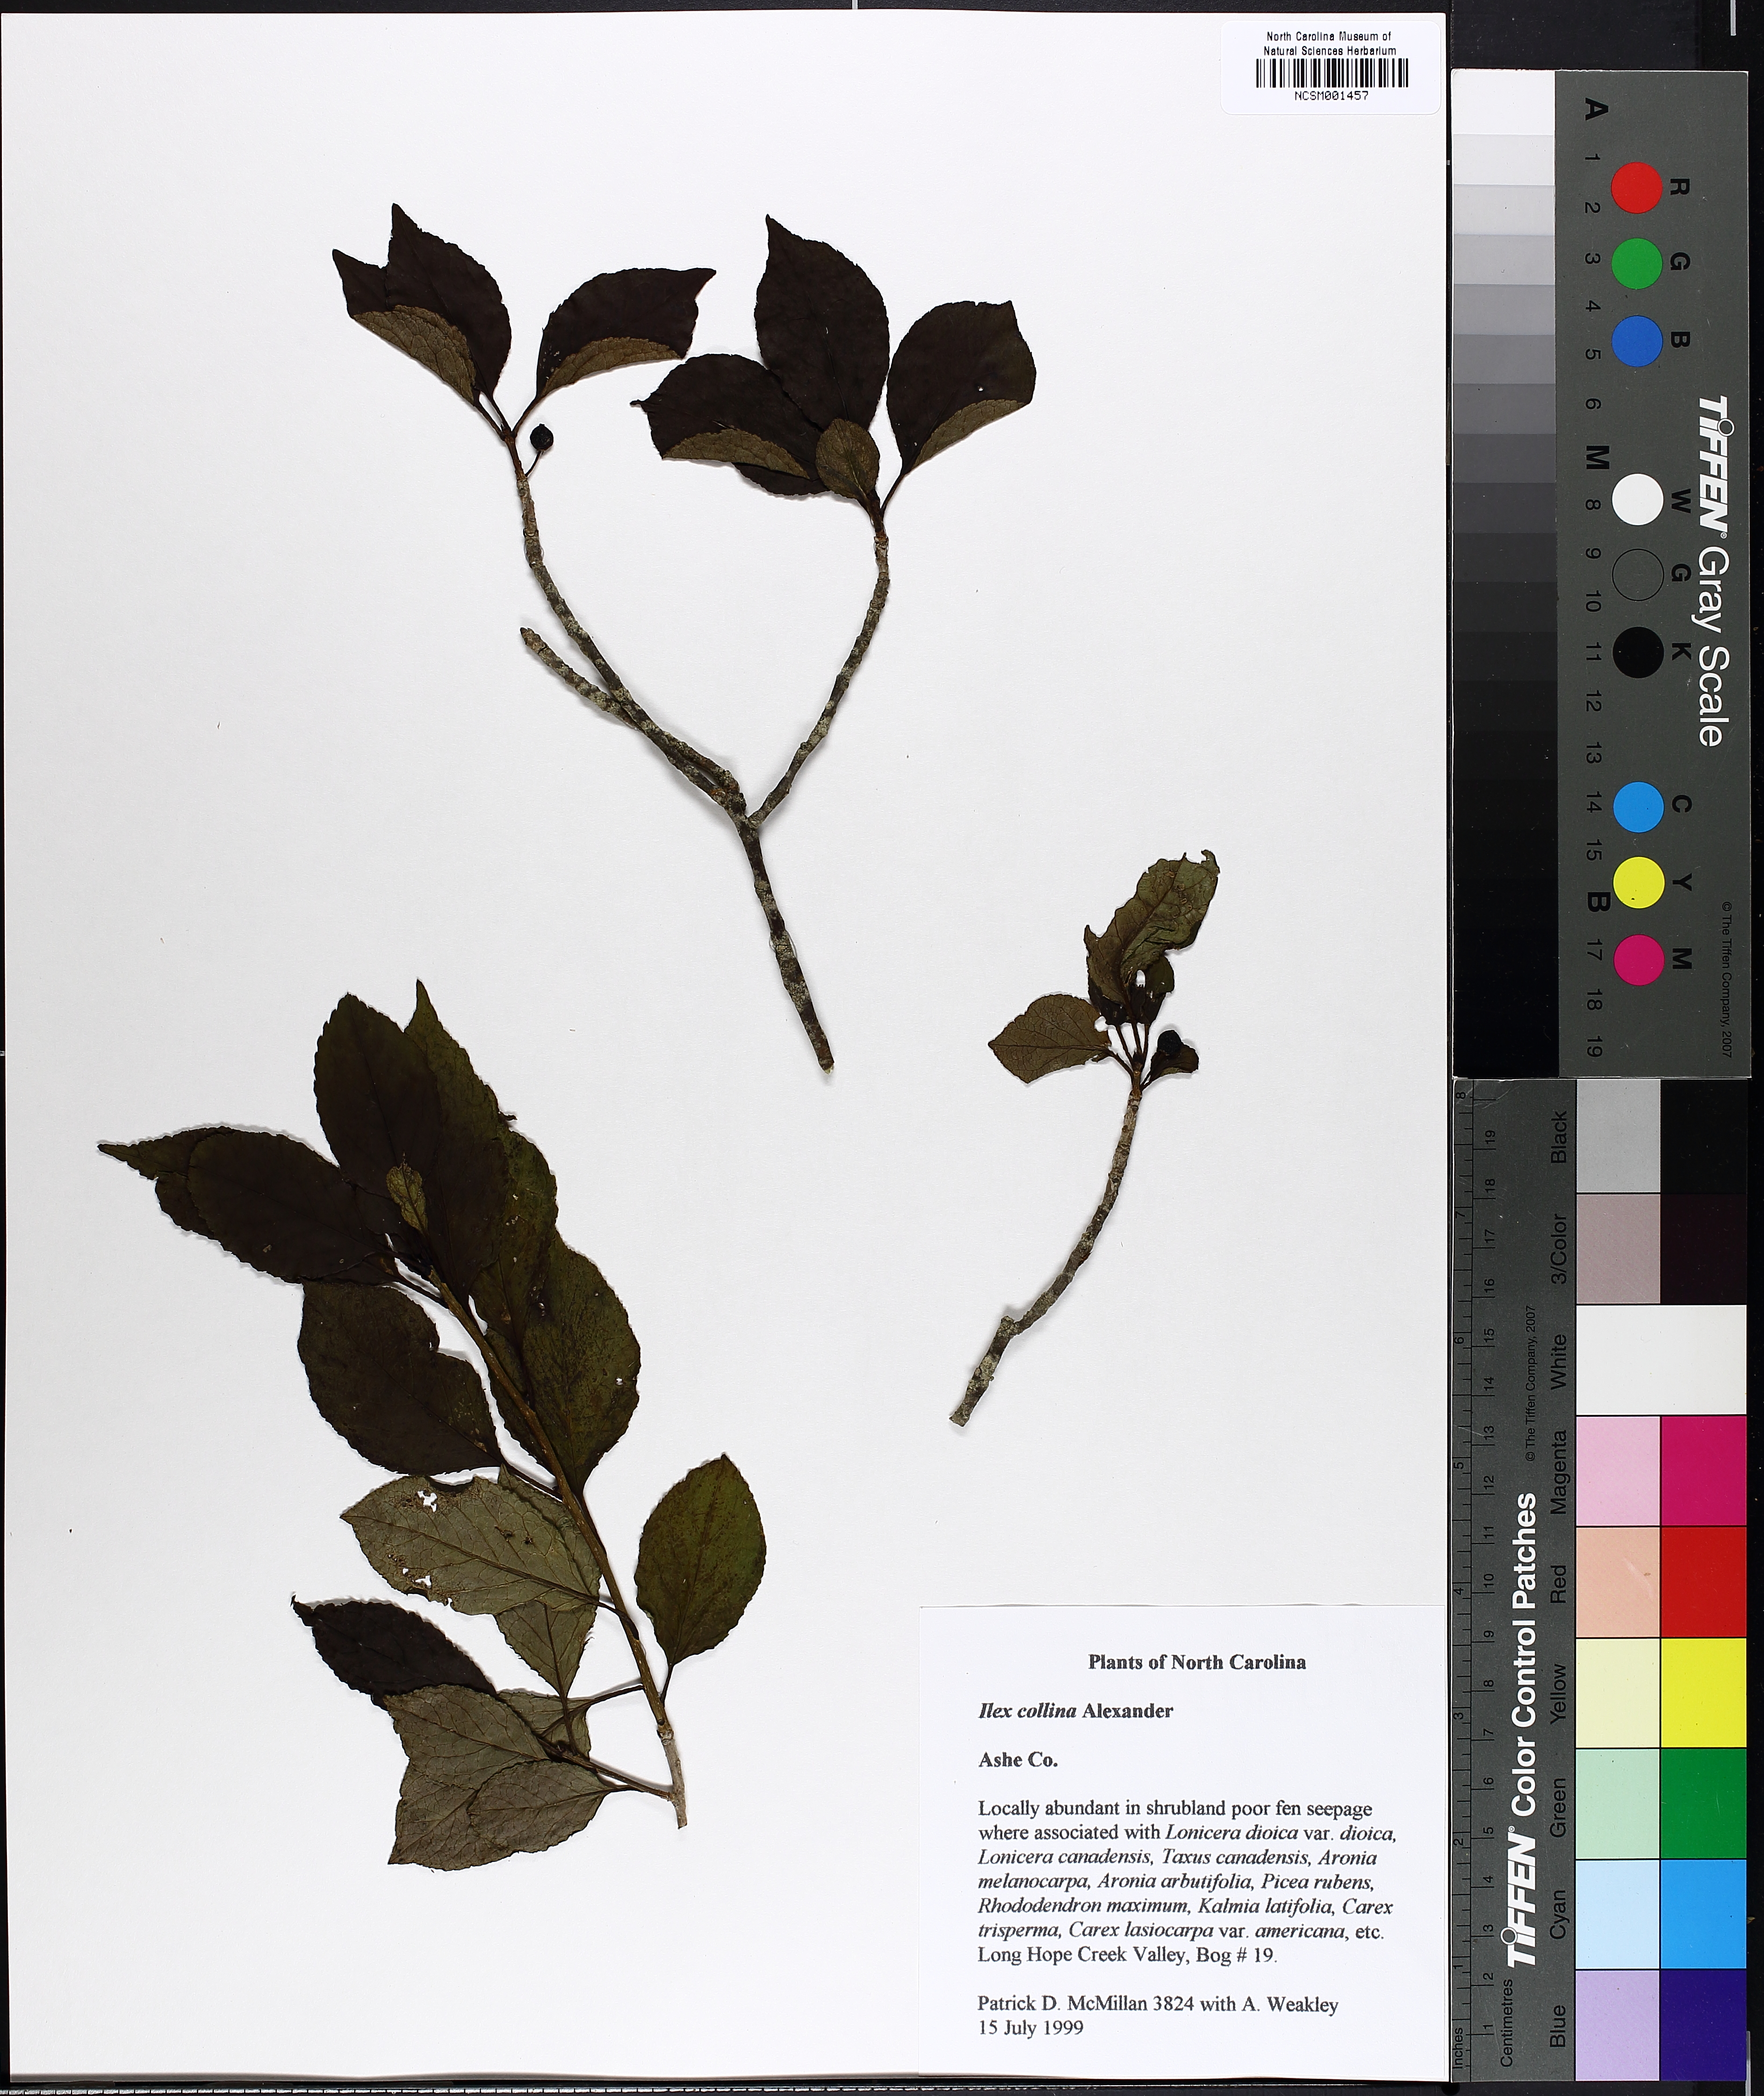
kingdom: Plantae
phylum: Tracheophyta
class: Magnoliopsida
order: Aquifoliales
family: Aquifoliaceae
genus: Ilex
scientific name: Ilex collina
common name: Long stalk holly
